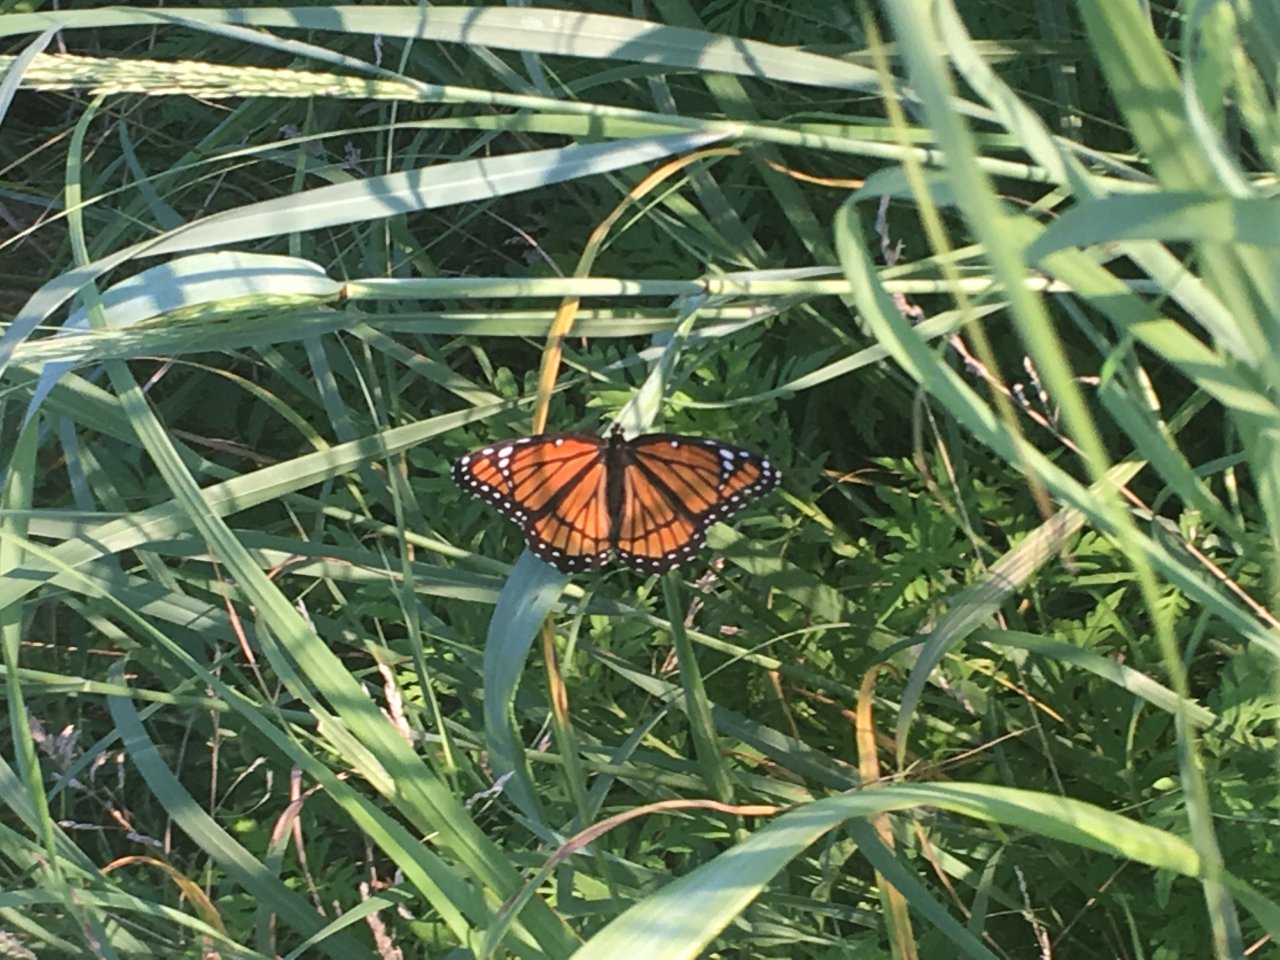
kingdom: Animalia
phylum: Arthropoda
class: Insecta
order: Lepidoptera
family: Nymphalidae
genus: Limenitis
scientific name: Limenitis archippus
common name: Viceroy
